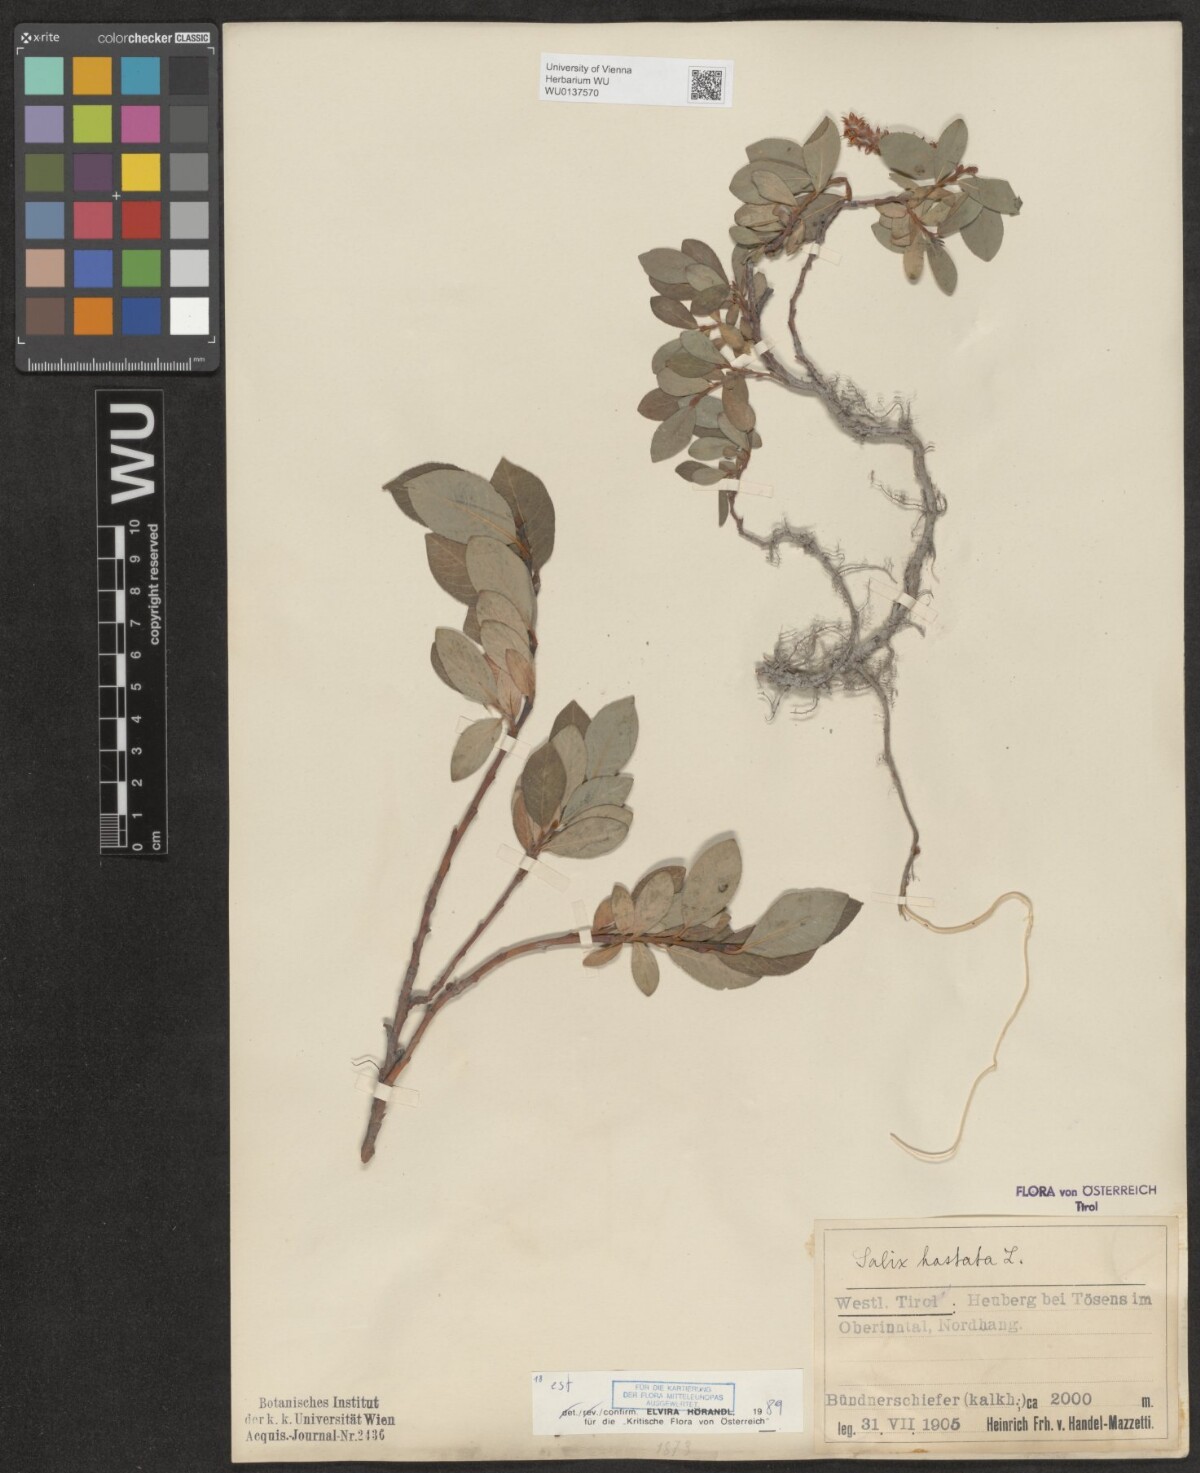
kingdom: Plantae
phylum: Tracheophyta
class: Magnoliopsida
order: Malpighiales
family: Salicaceae
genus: Salix
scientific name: Salix hastata
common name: Halberd willow
